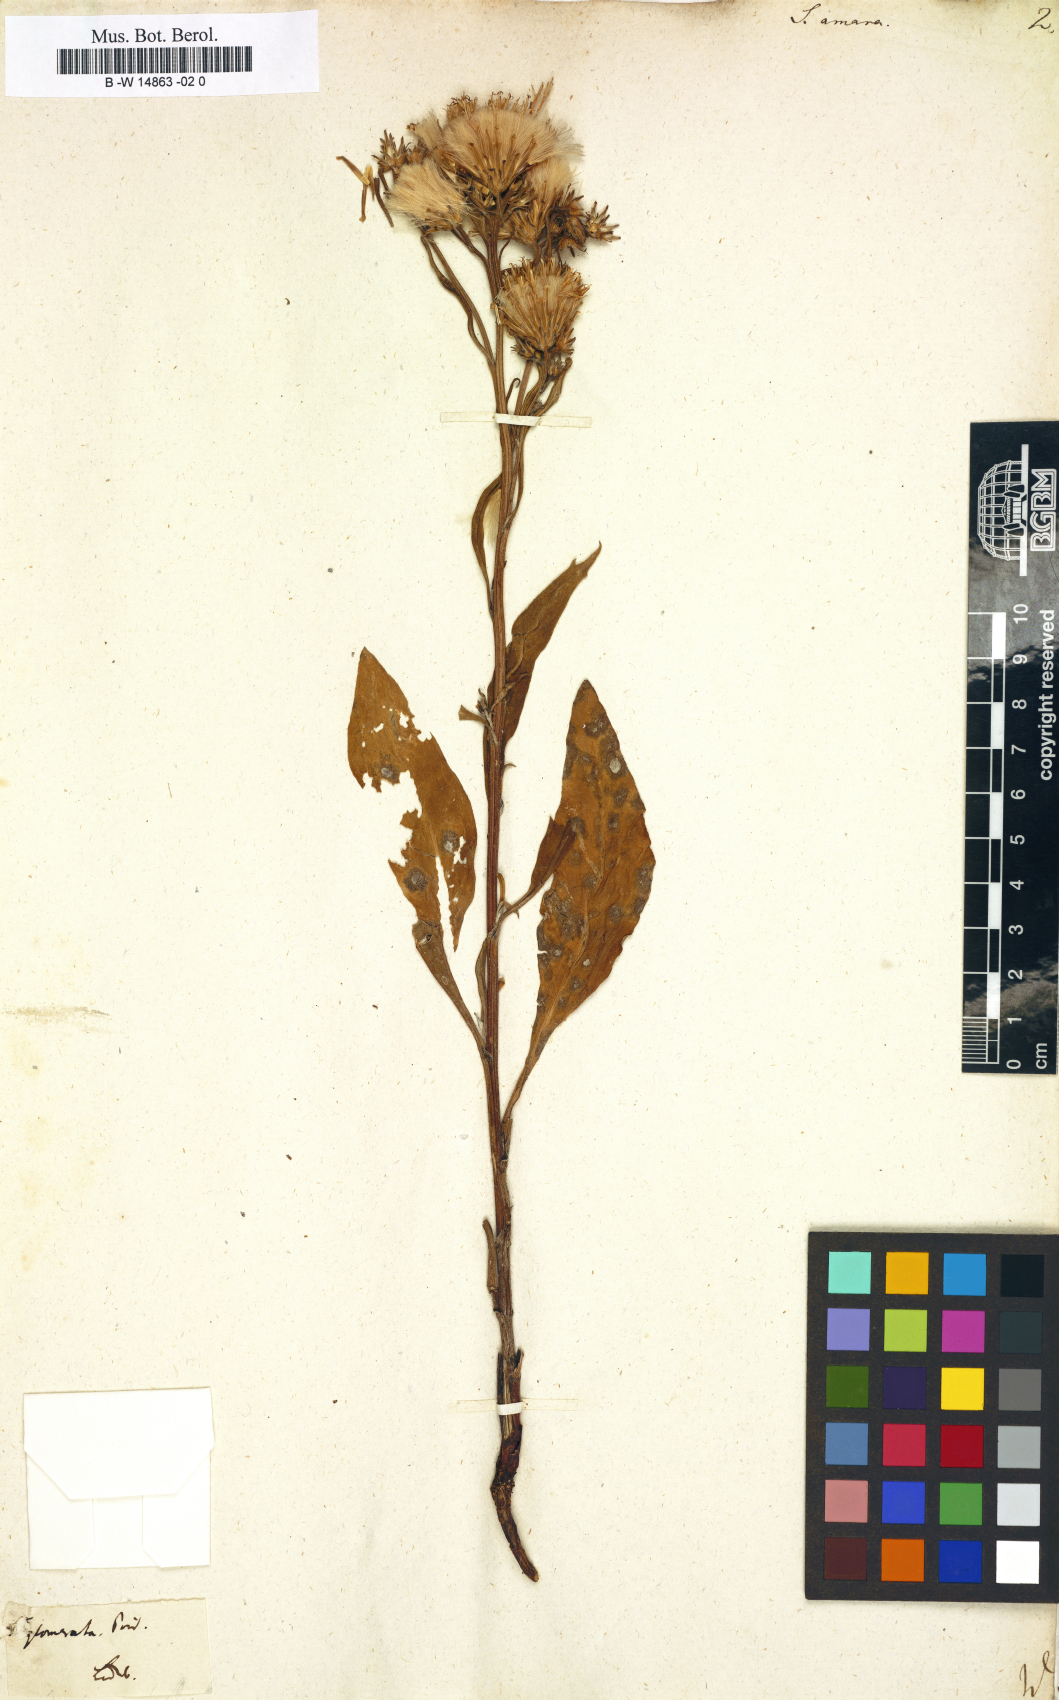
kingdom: Plantae
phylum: Tracheophyta
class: Magnoliopsida
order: Asterales
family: Asteraceae
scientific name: Asteraceae
